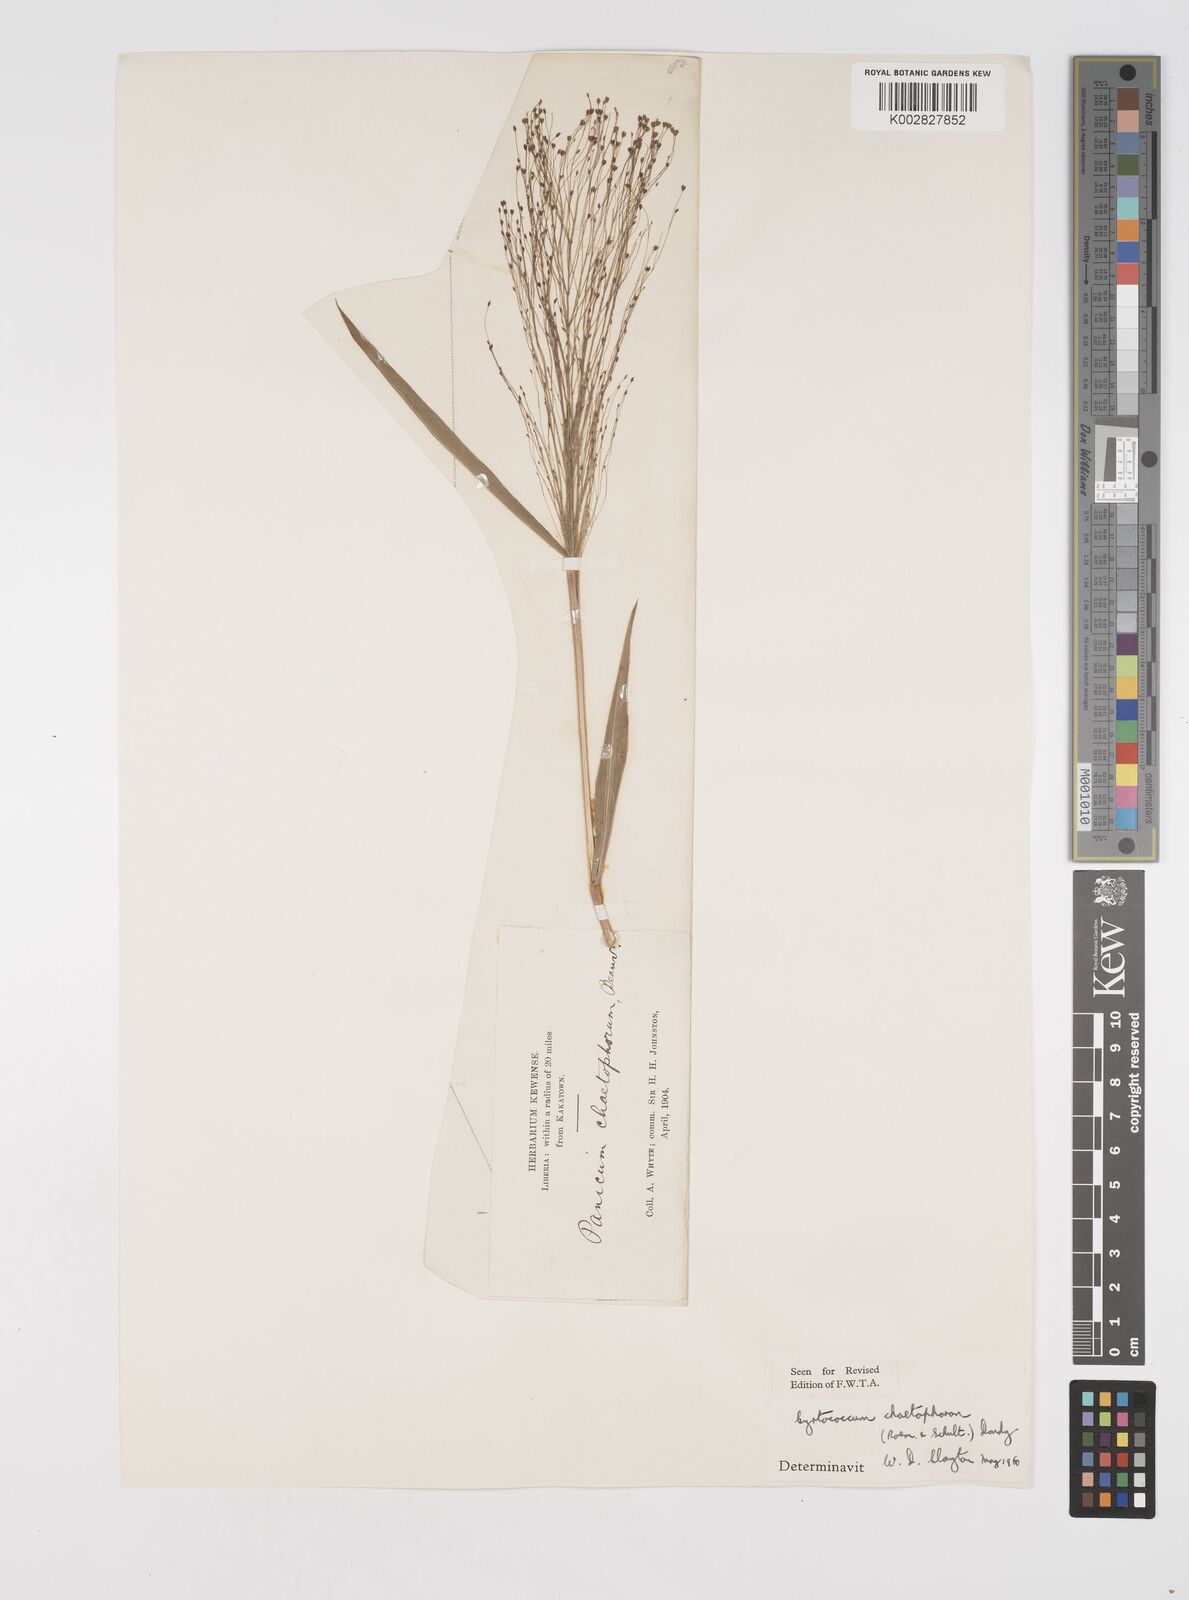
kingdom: Plantae
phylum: Tracheophyta
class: Liliopsida
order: Poales
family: Poaceae
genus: Cyrtococcum
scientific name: Cyrtococcum chaetophoron
